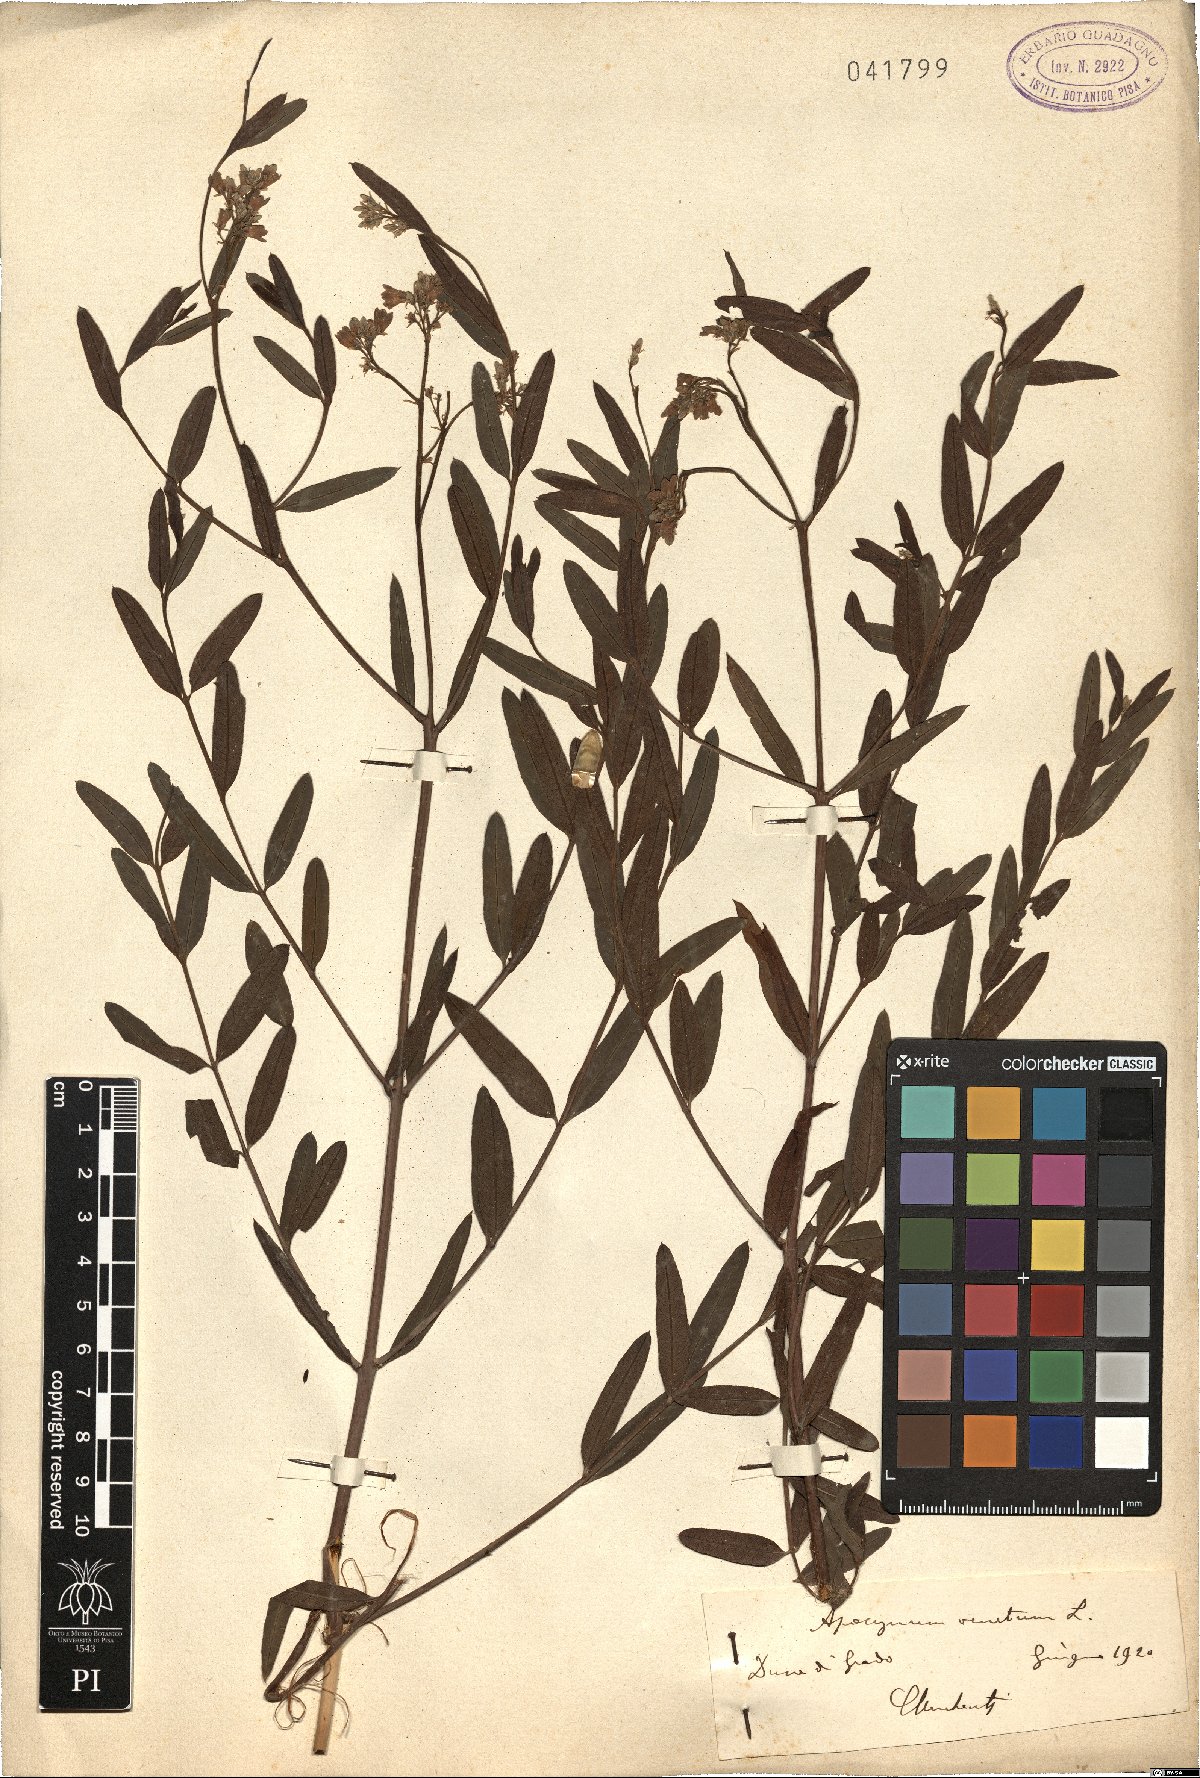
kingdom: Plantae
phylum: Tracheophyta
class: Magnoliopsida
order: Gentianales
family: Apocynaceae
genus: Poacynum
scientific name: Poacynum venetum
